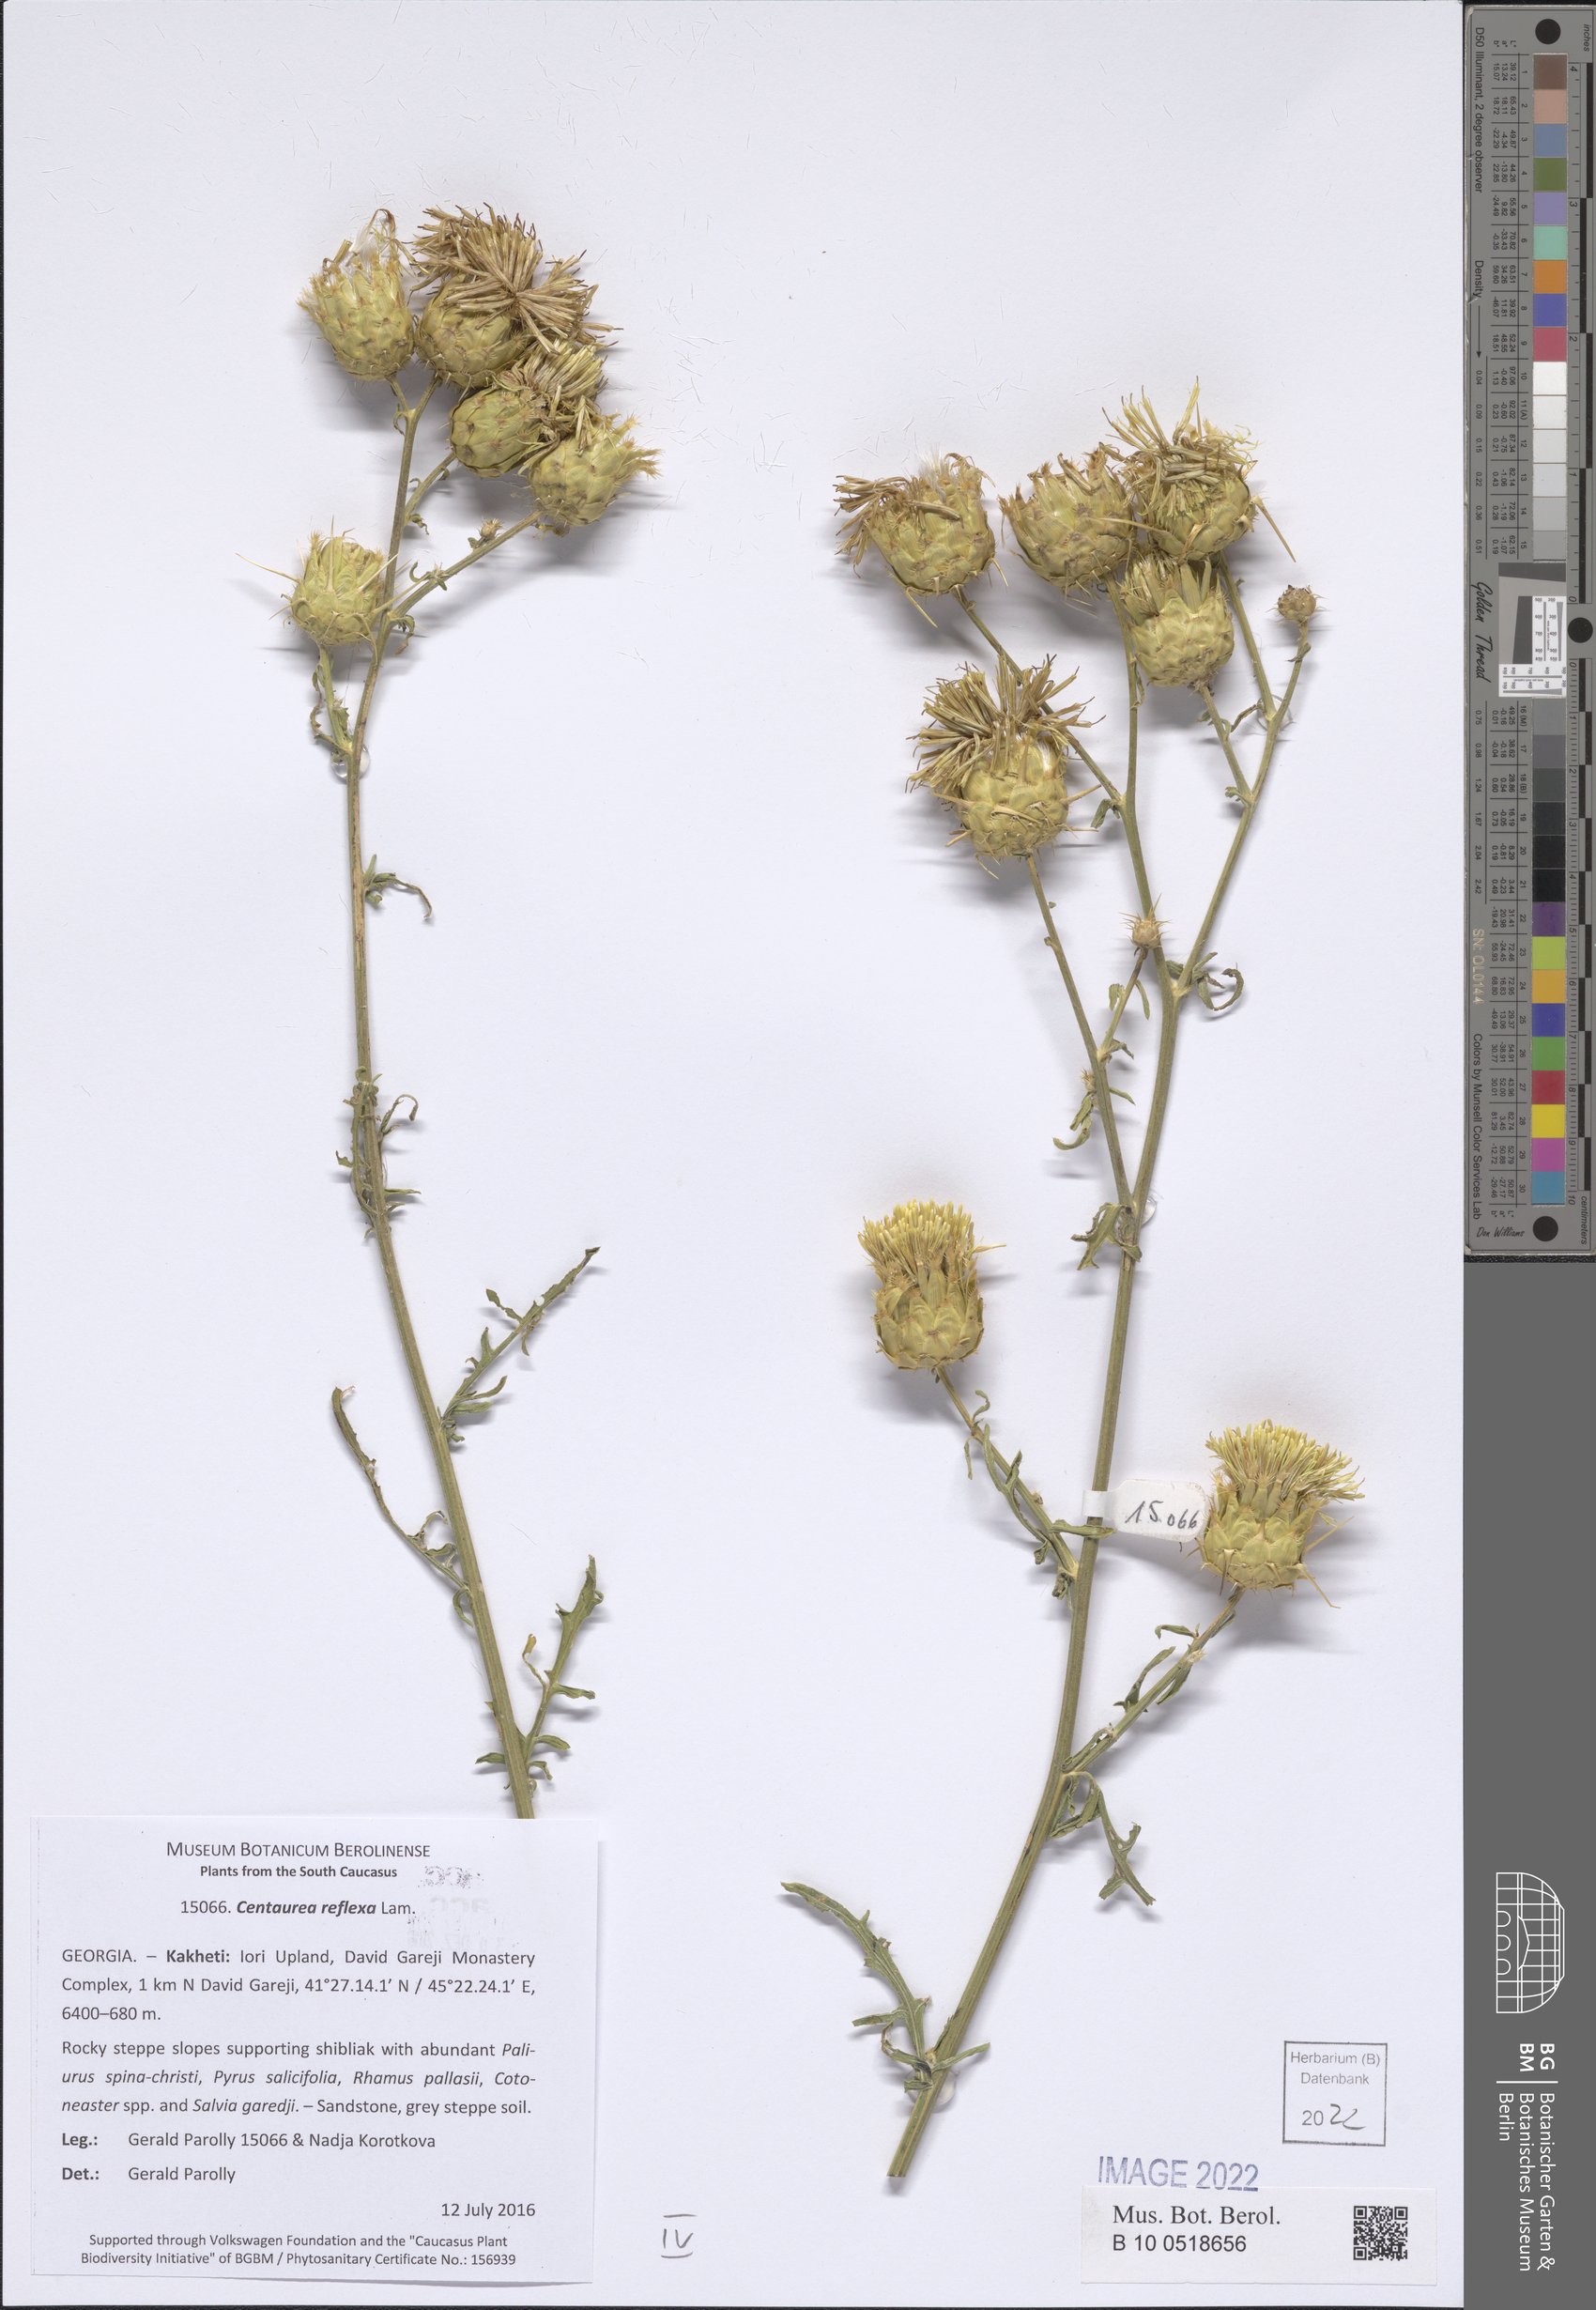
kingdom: Plantae
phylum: Tracheophyta
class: Magnoliopsida
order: Asterales
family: Asteraceae
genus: Centaurea
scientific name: Centaurea reflexa
